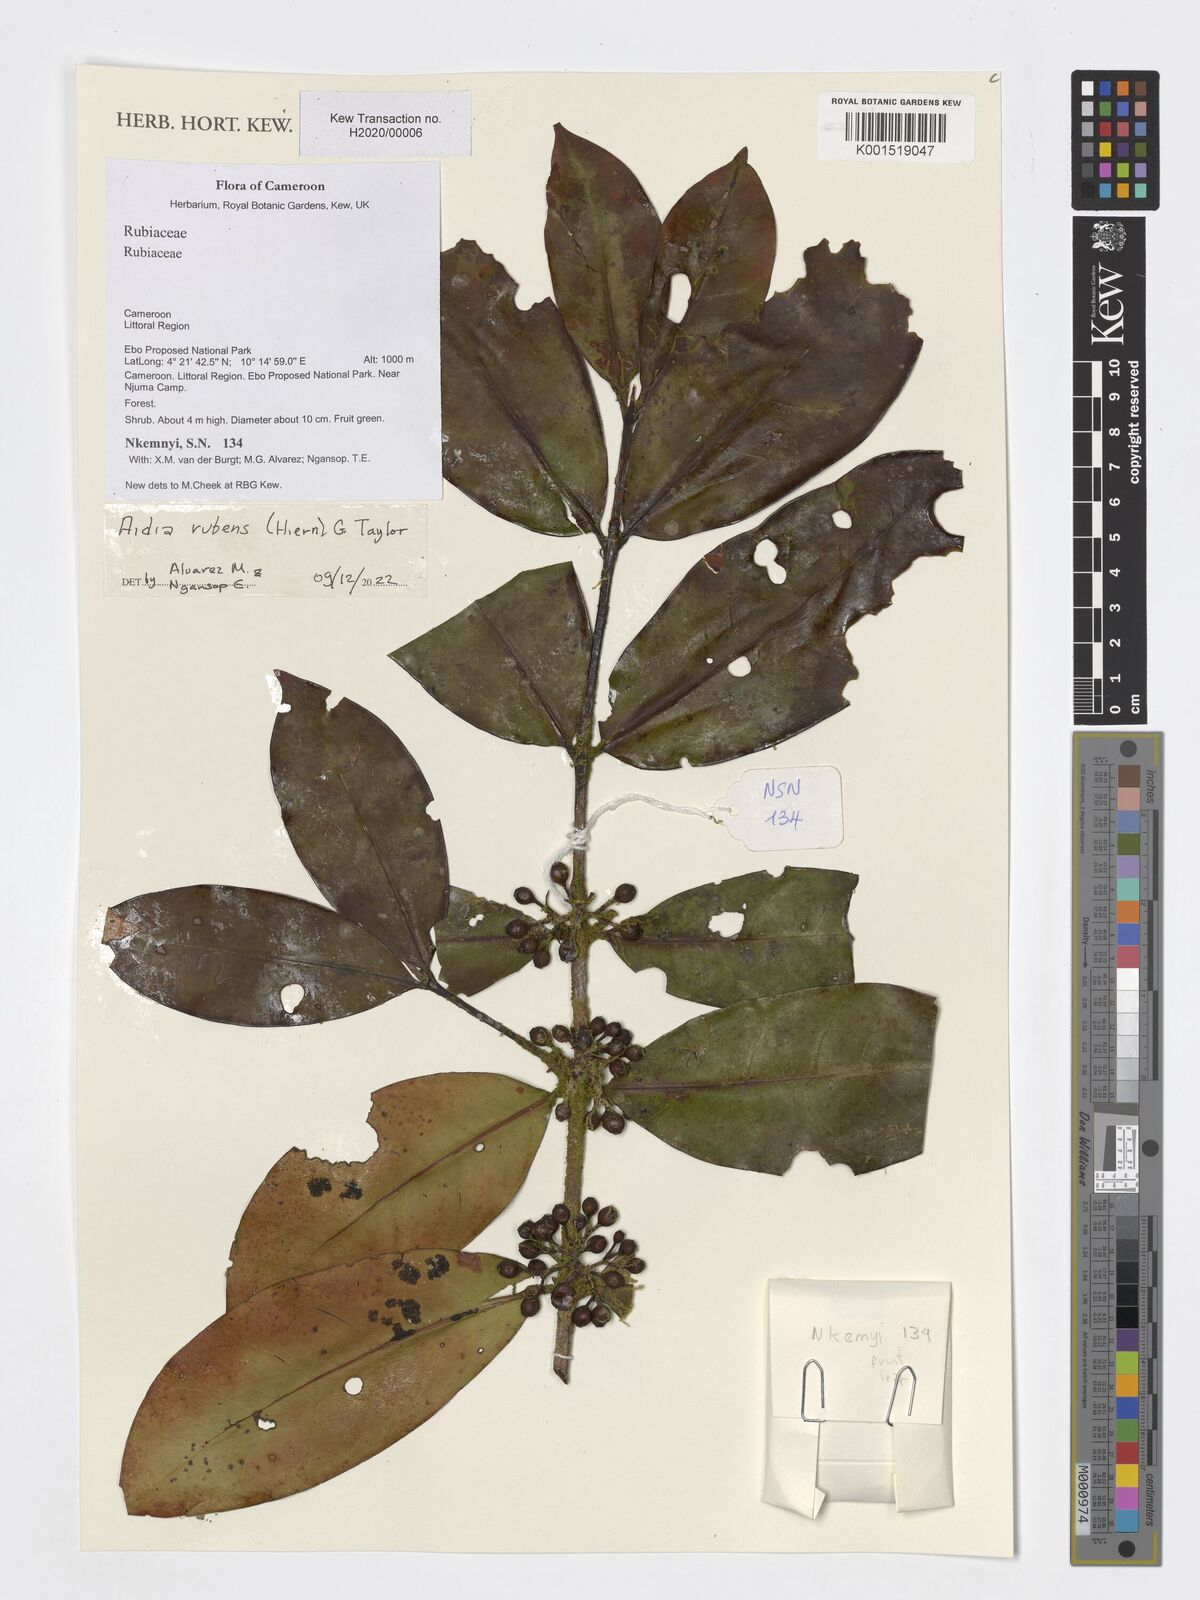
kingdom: Plantae
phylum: Tracheophyta
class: Magnoliopsida
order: Gentianales
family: Rubiaceae
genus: Aidia
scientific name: Aidia rubens
